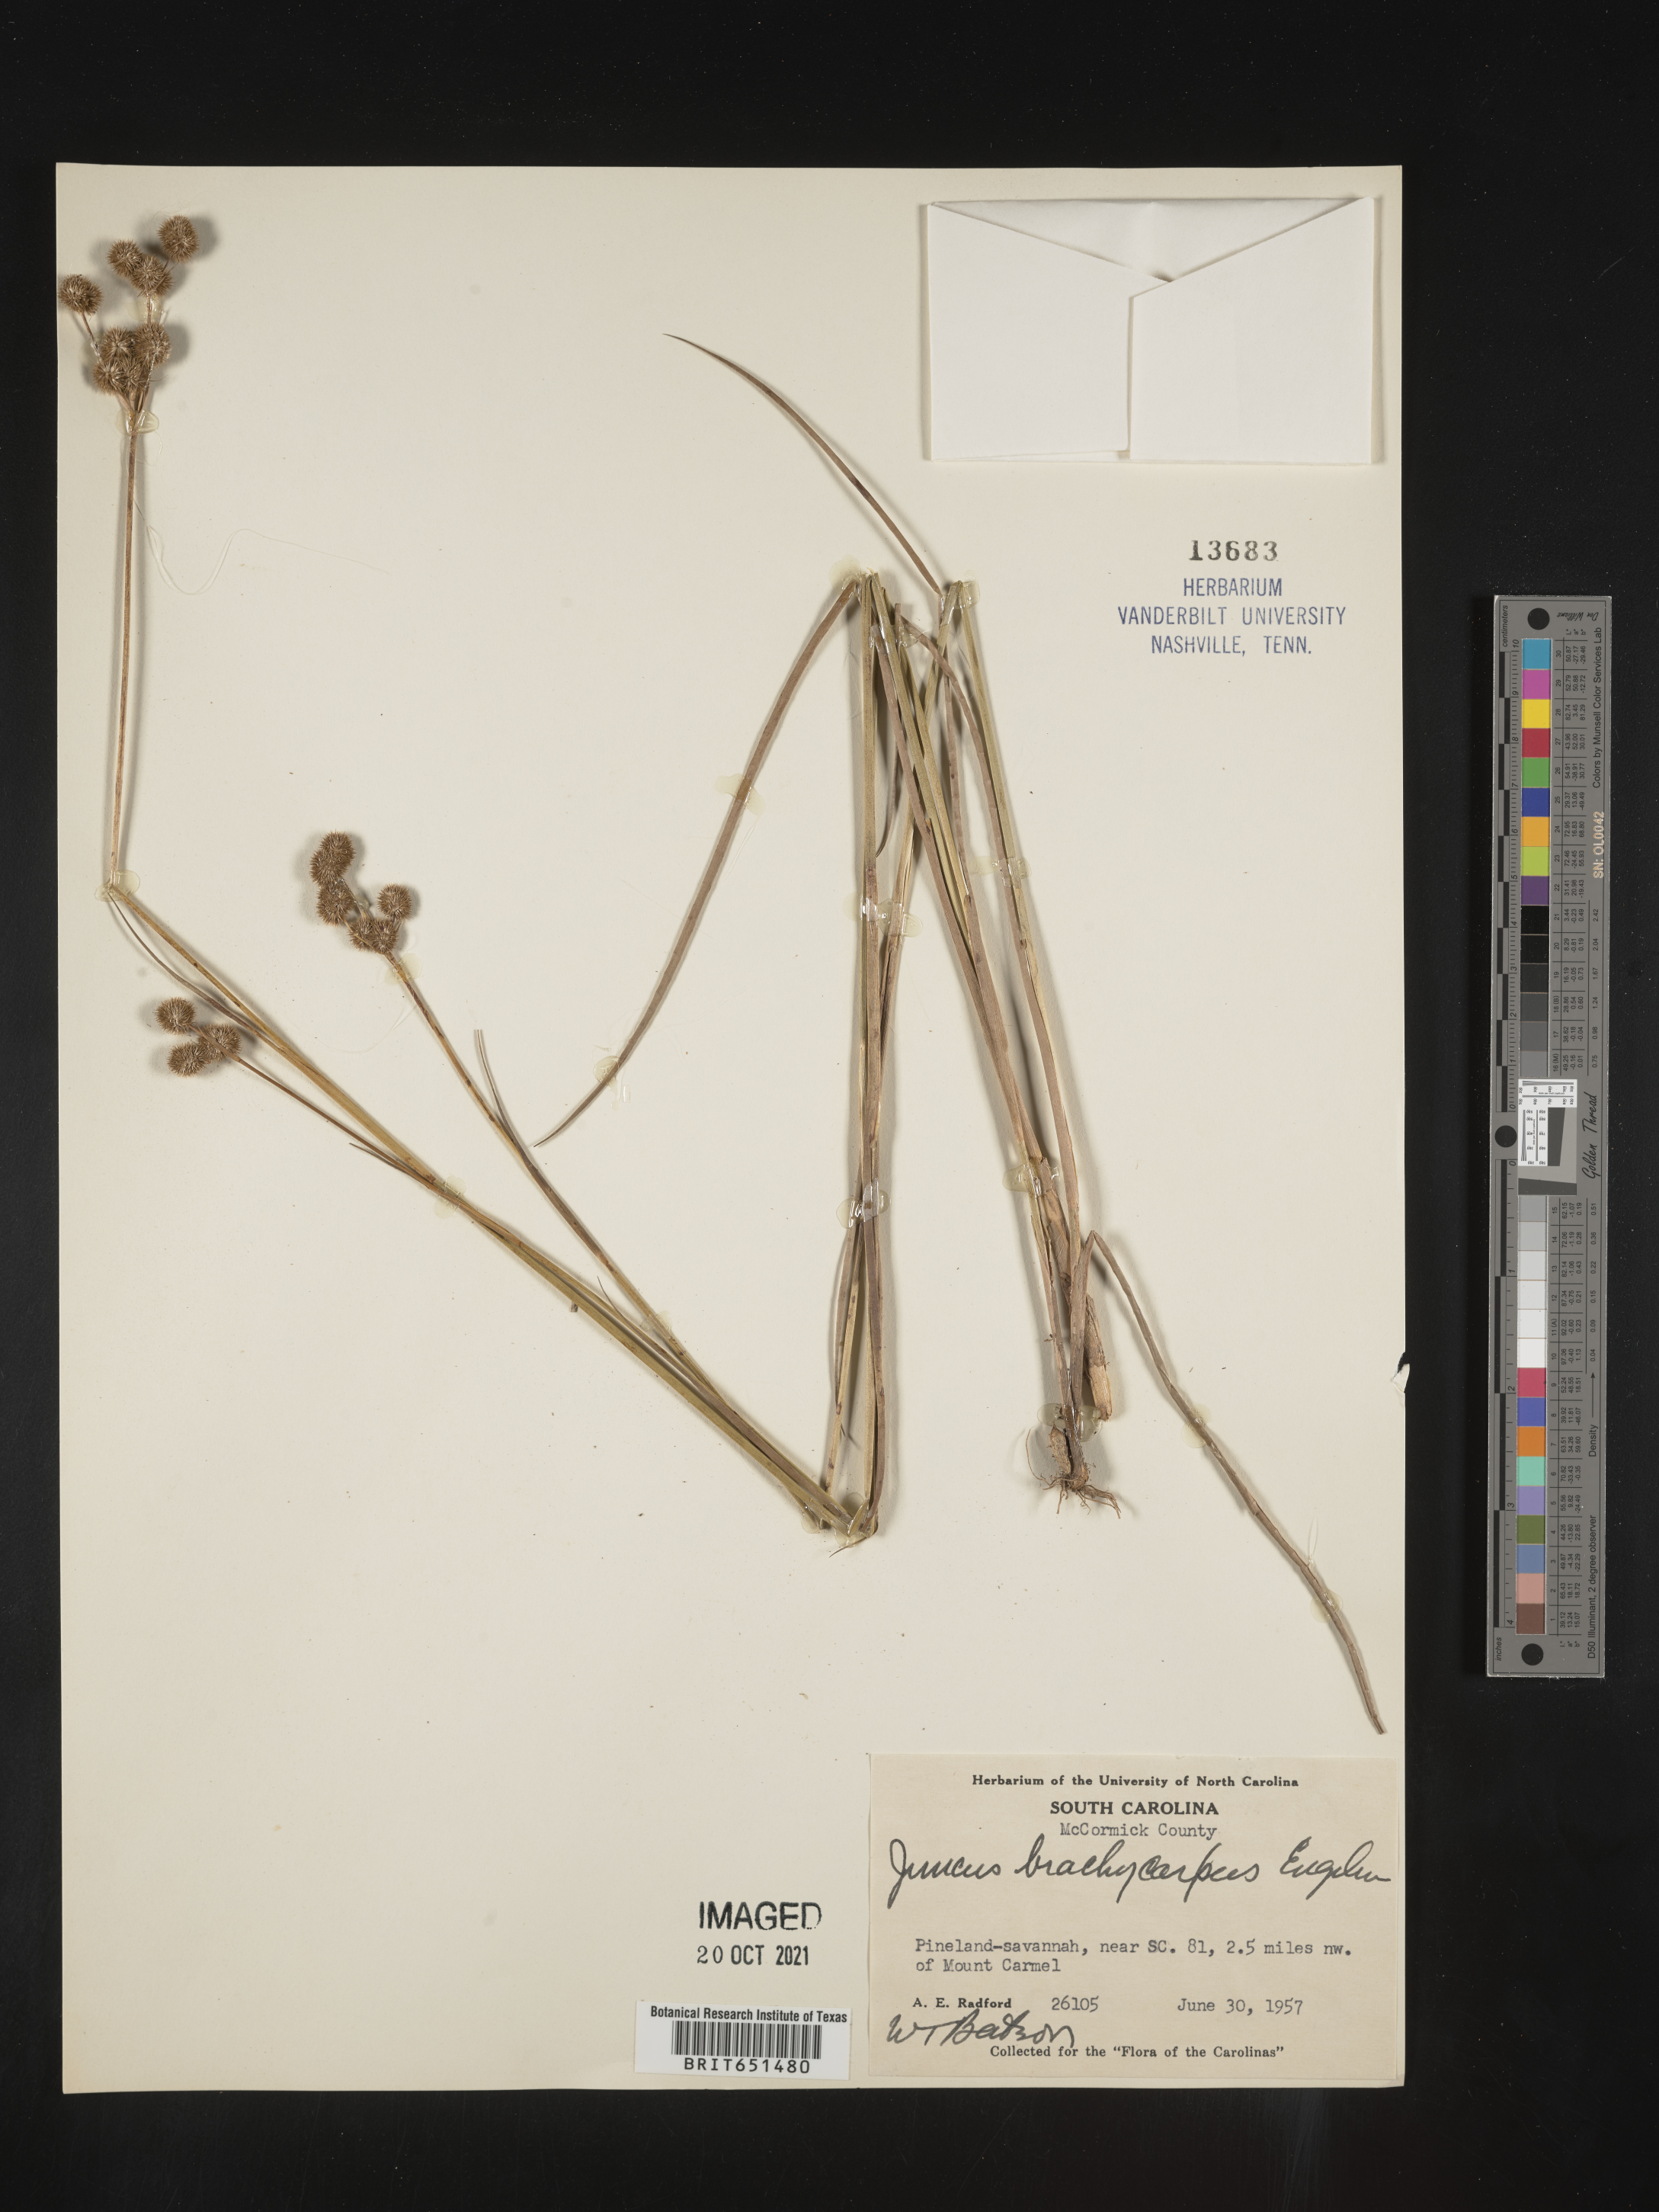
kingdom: Plantae
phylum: Tracheophyta
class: Liliopsida
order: Poales
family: Juncaceae
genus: Juncus
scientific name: Juncus brachycarpus
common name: Shore rush
